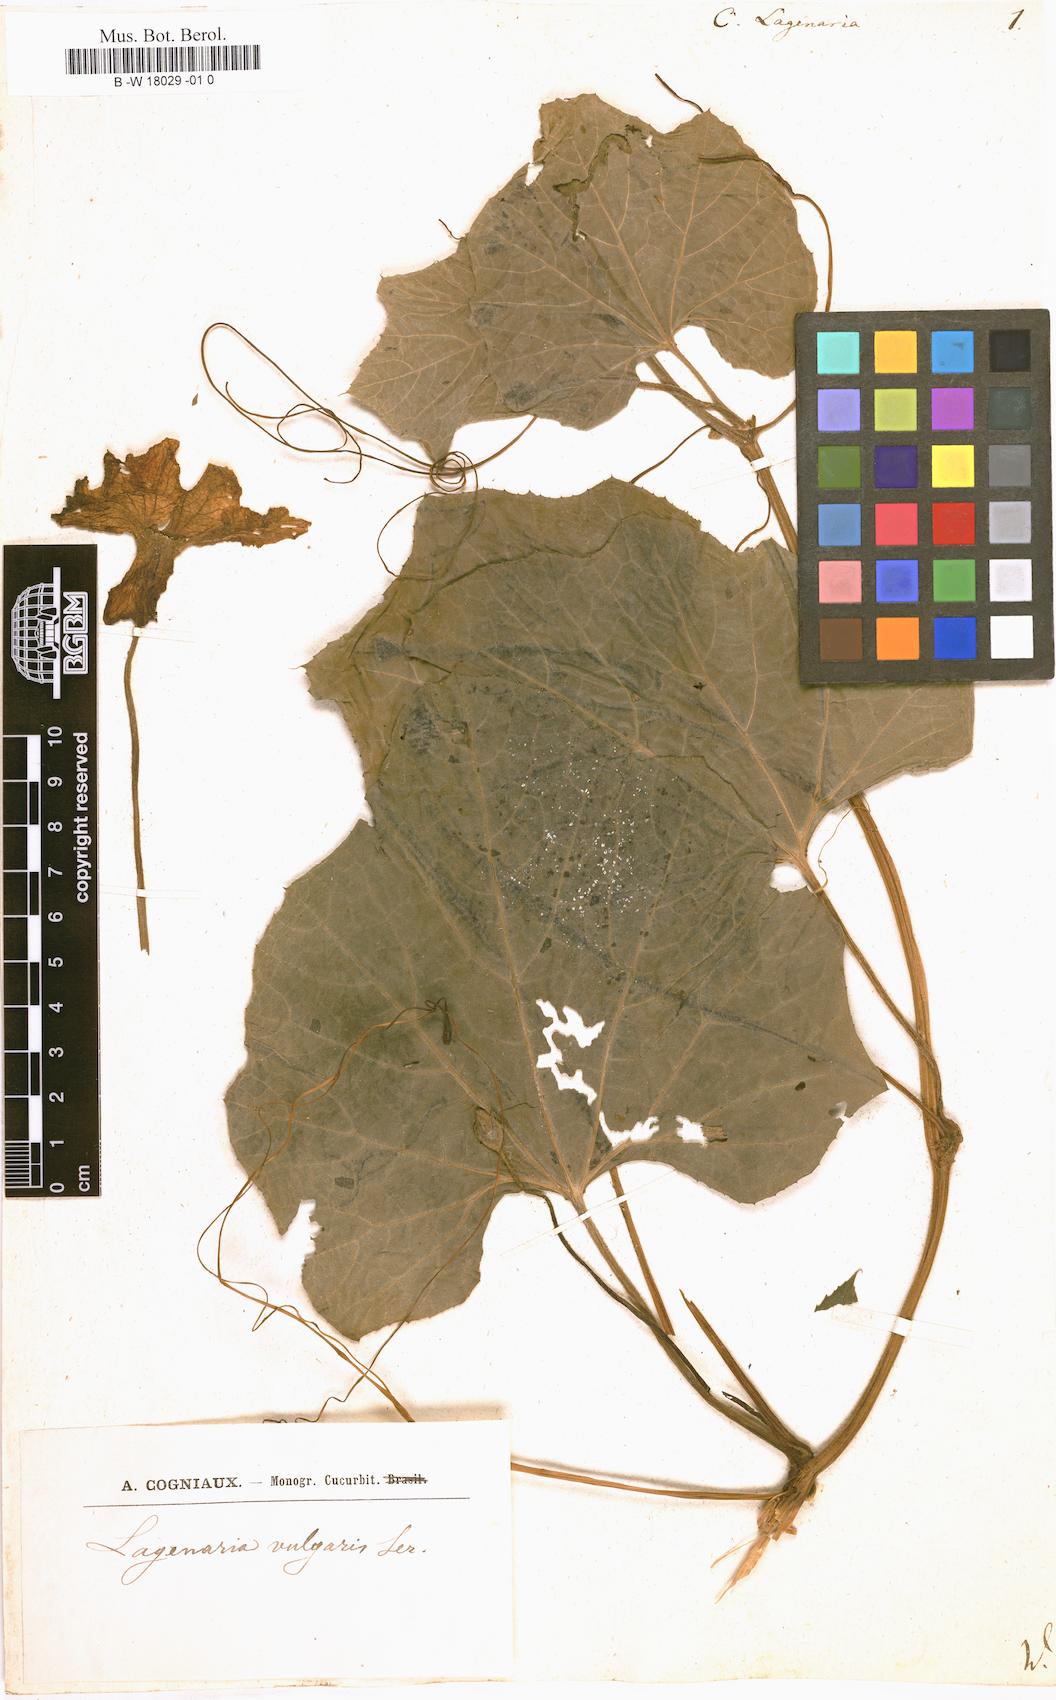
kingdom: Plantae
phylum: Tracheophyta
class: Magnoliopsida
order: Cucurbitales
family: Cucurbitaceae
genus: Lagenaria
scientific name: Lagenaria siceraria
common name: Bottle gourd
